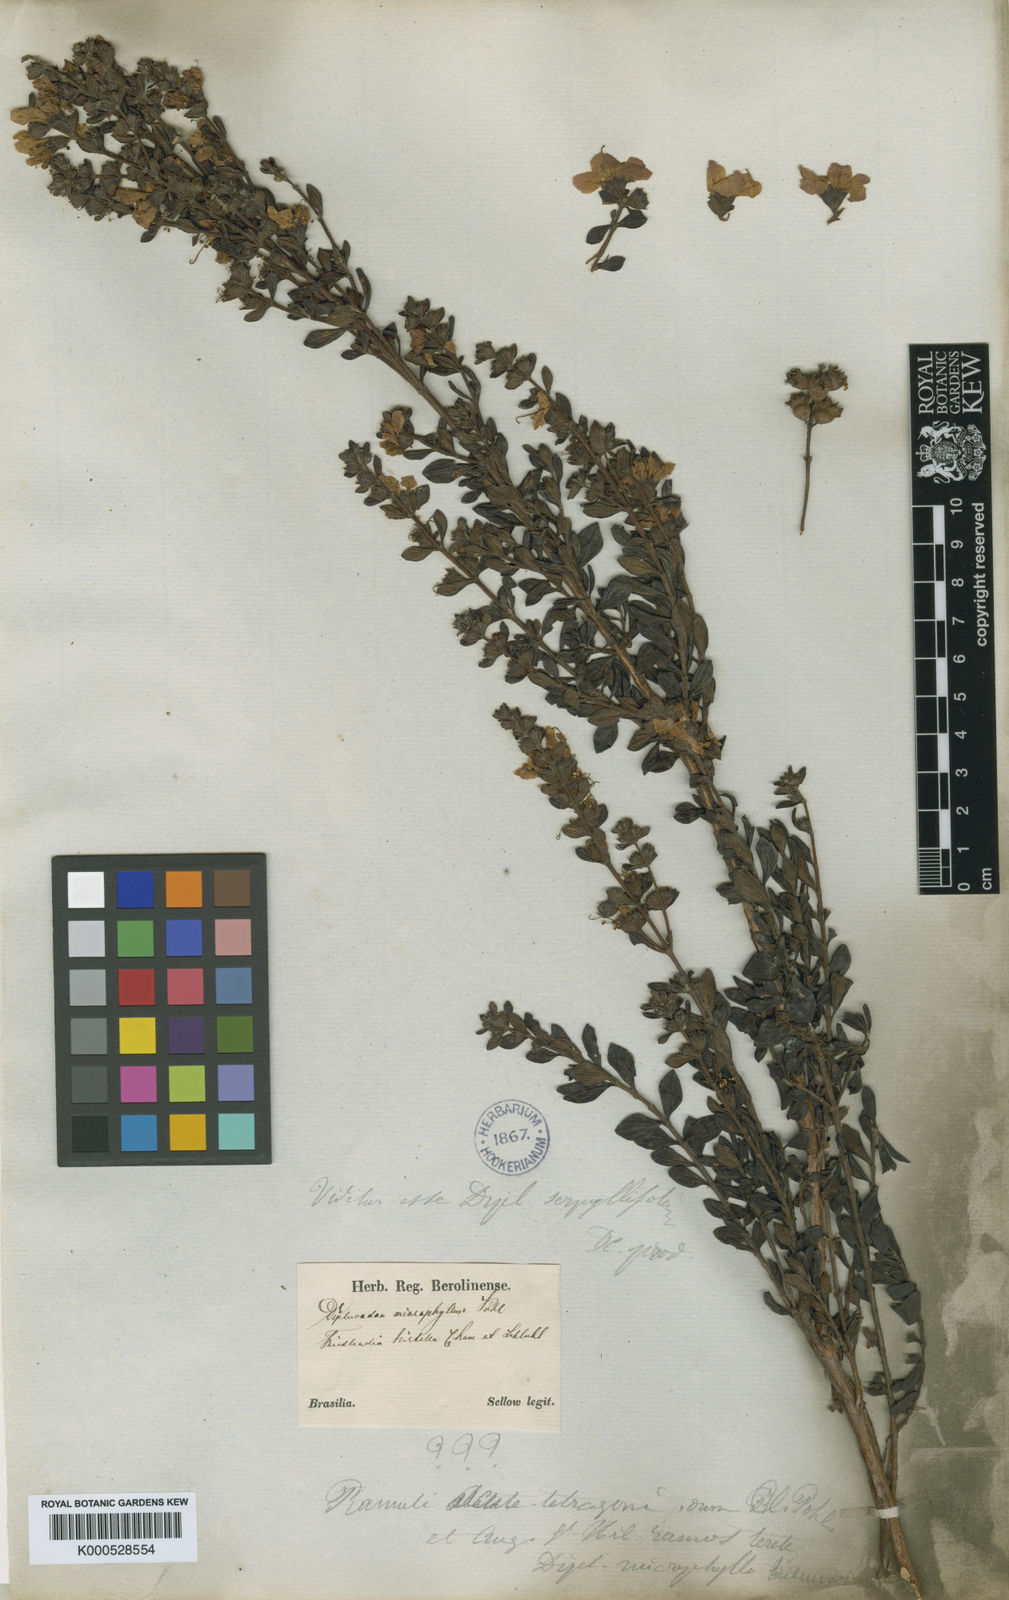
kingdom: Plantae
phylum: Tracheophyta
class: Magnoliopsida
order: Myrtales
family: Lythraceae
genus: Diplusodon
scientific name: Diplusodon microphyllus
